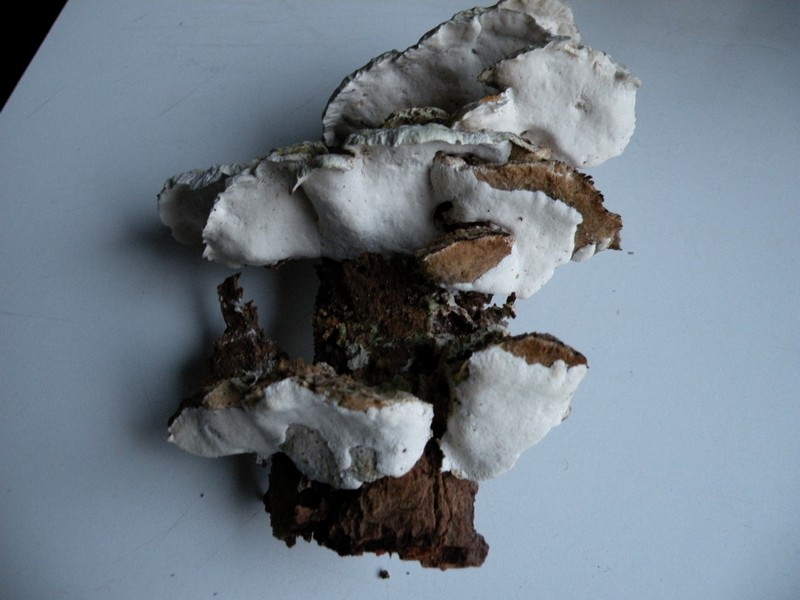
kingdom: Fungi
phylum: Basidiomycota
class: Agaricomycetes
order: Hymenochaetales
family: Oxyporaceae
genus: Oxyporus
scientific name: Oxyporus populinus
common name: sammenvokset trylleporesvamp
